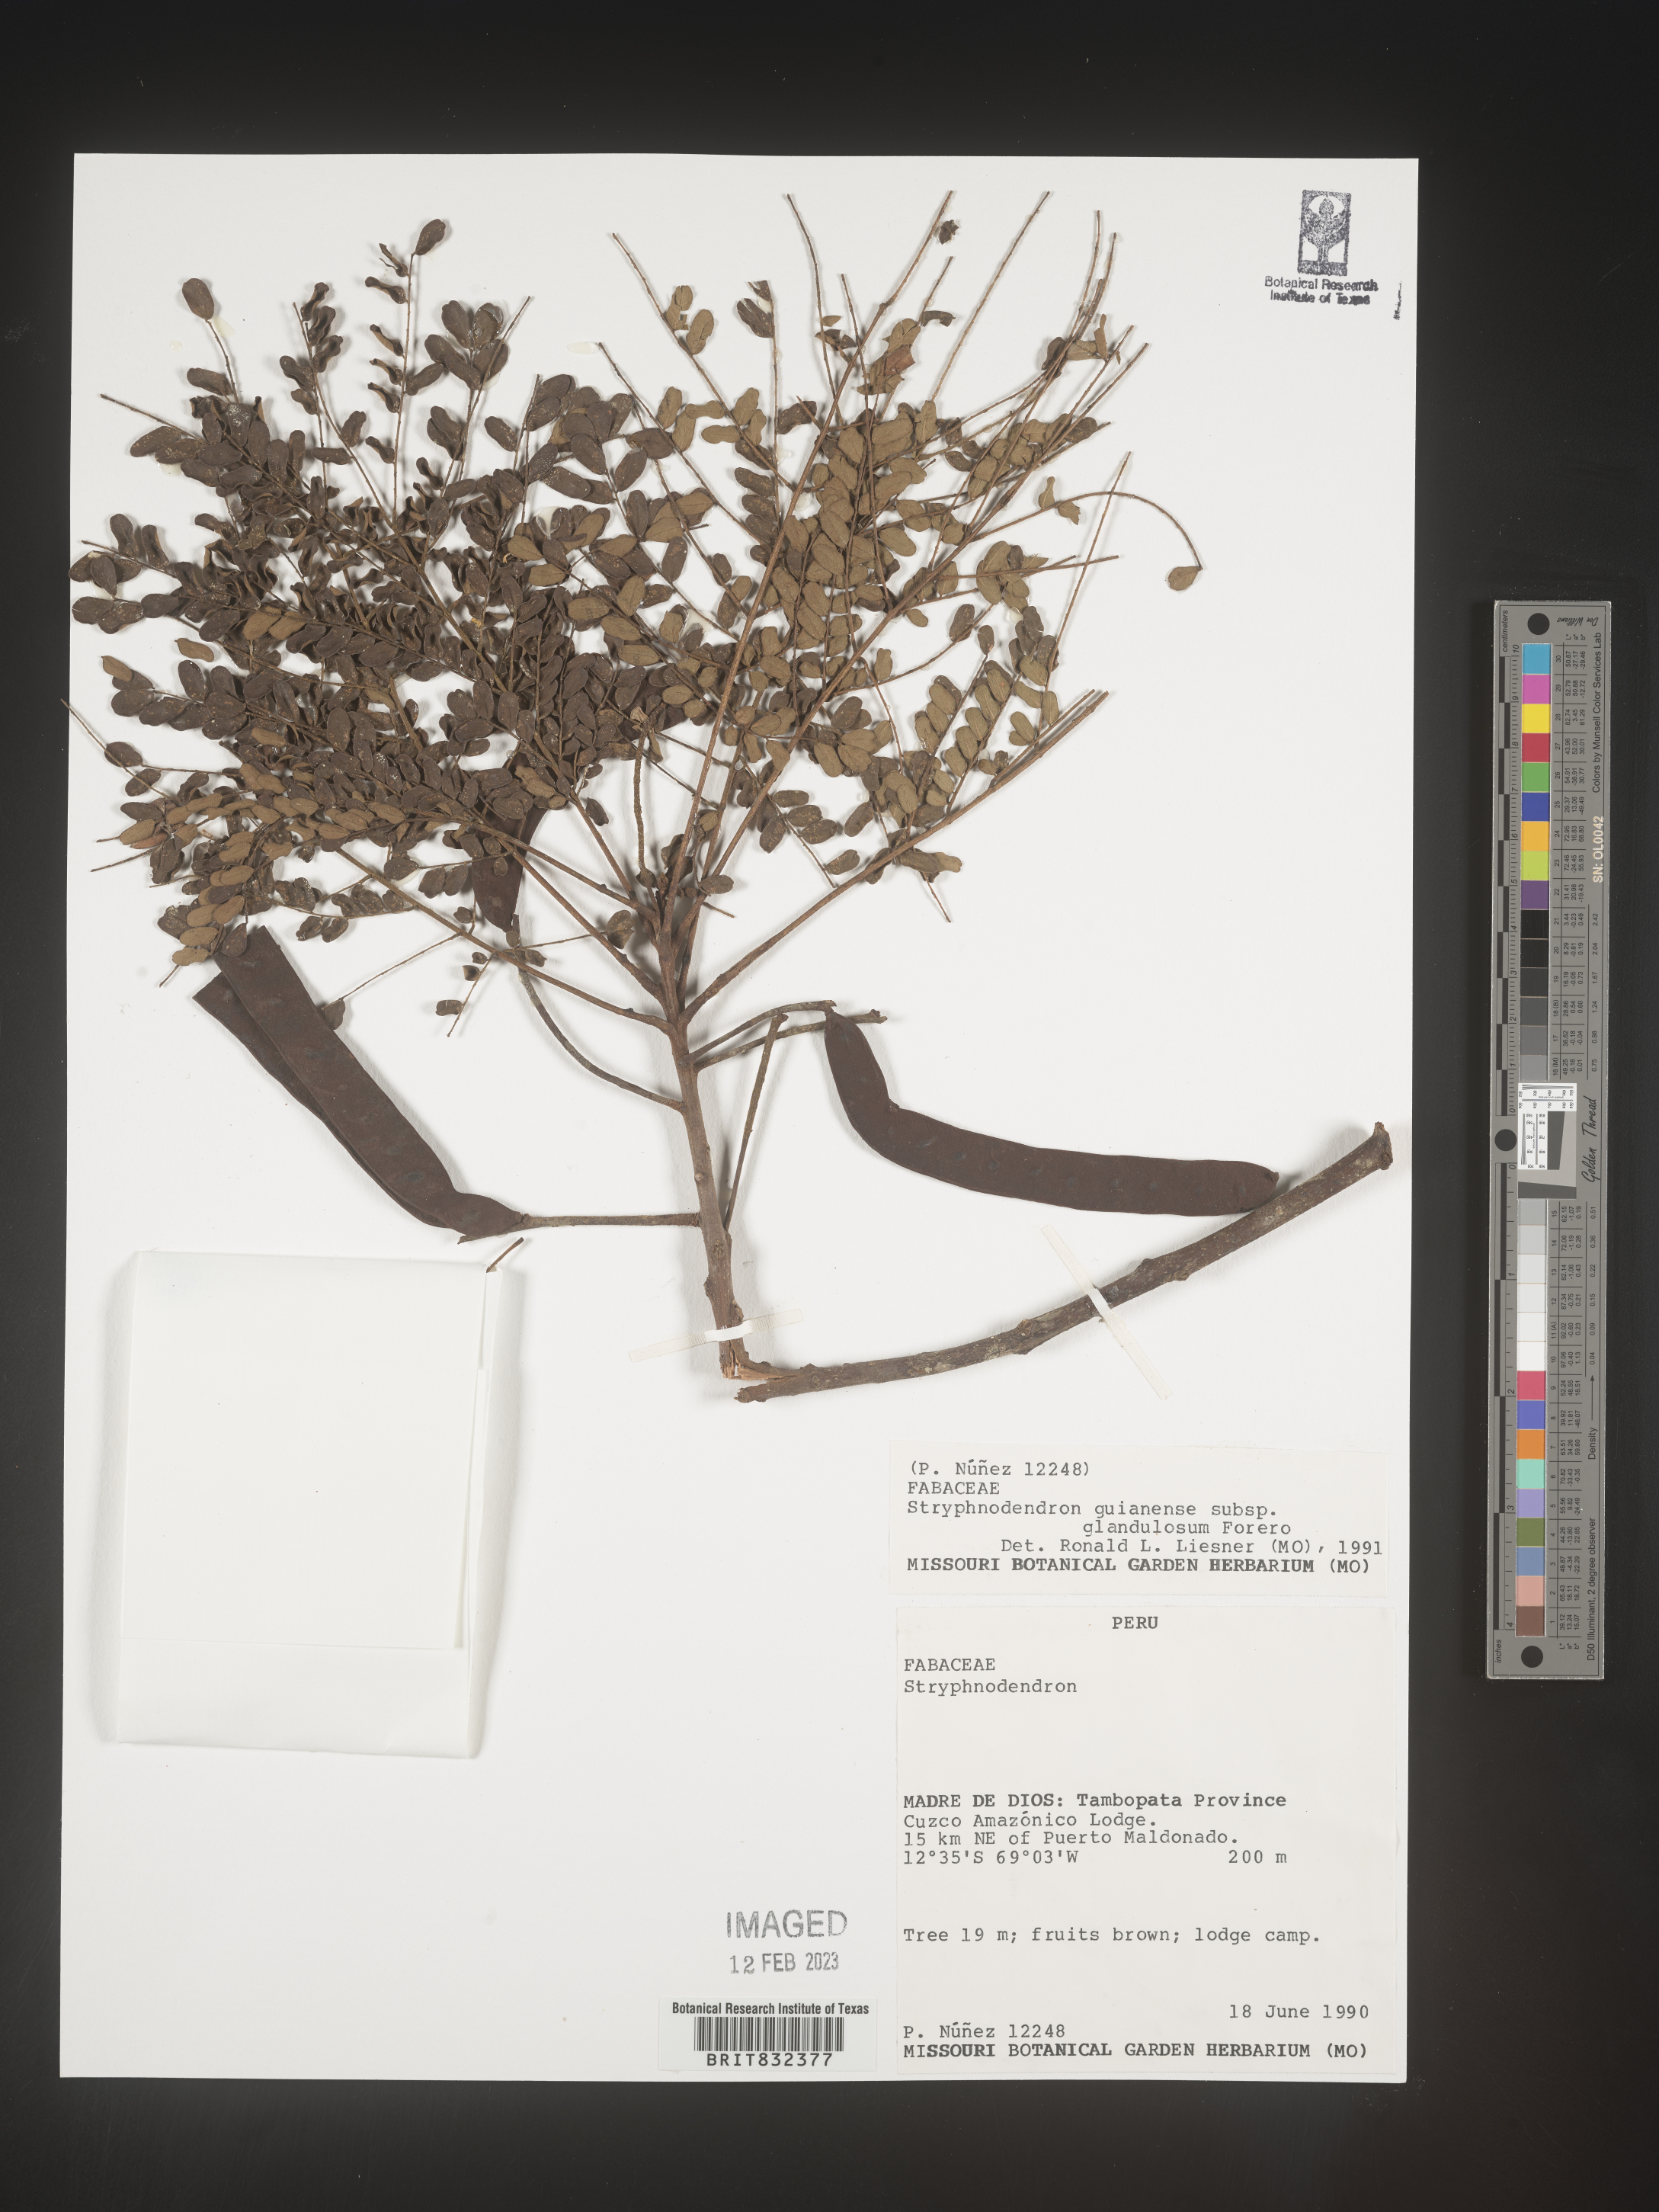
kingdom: Plantae
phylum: Tracheophyta
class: Magnoliopsida
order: Fabales
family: Fabaceae
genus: Stryphnodendron
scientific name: Stryphnodendron
